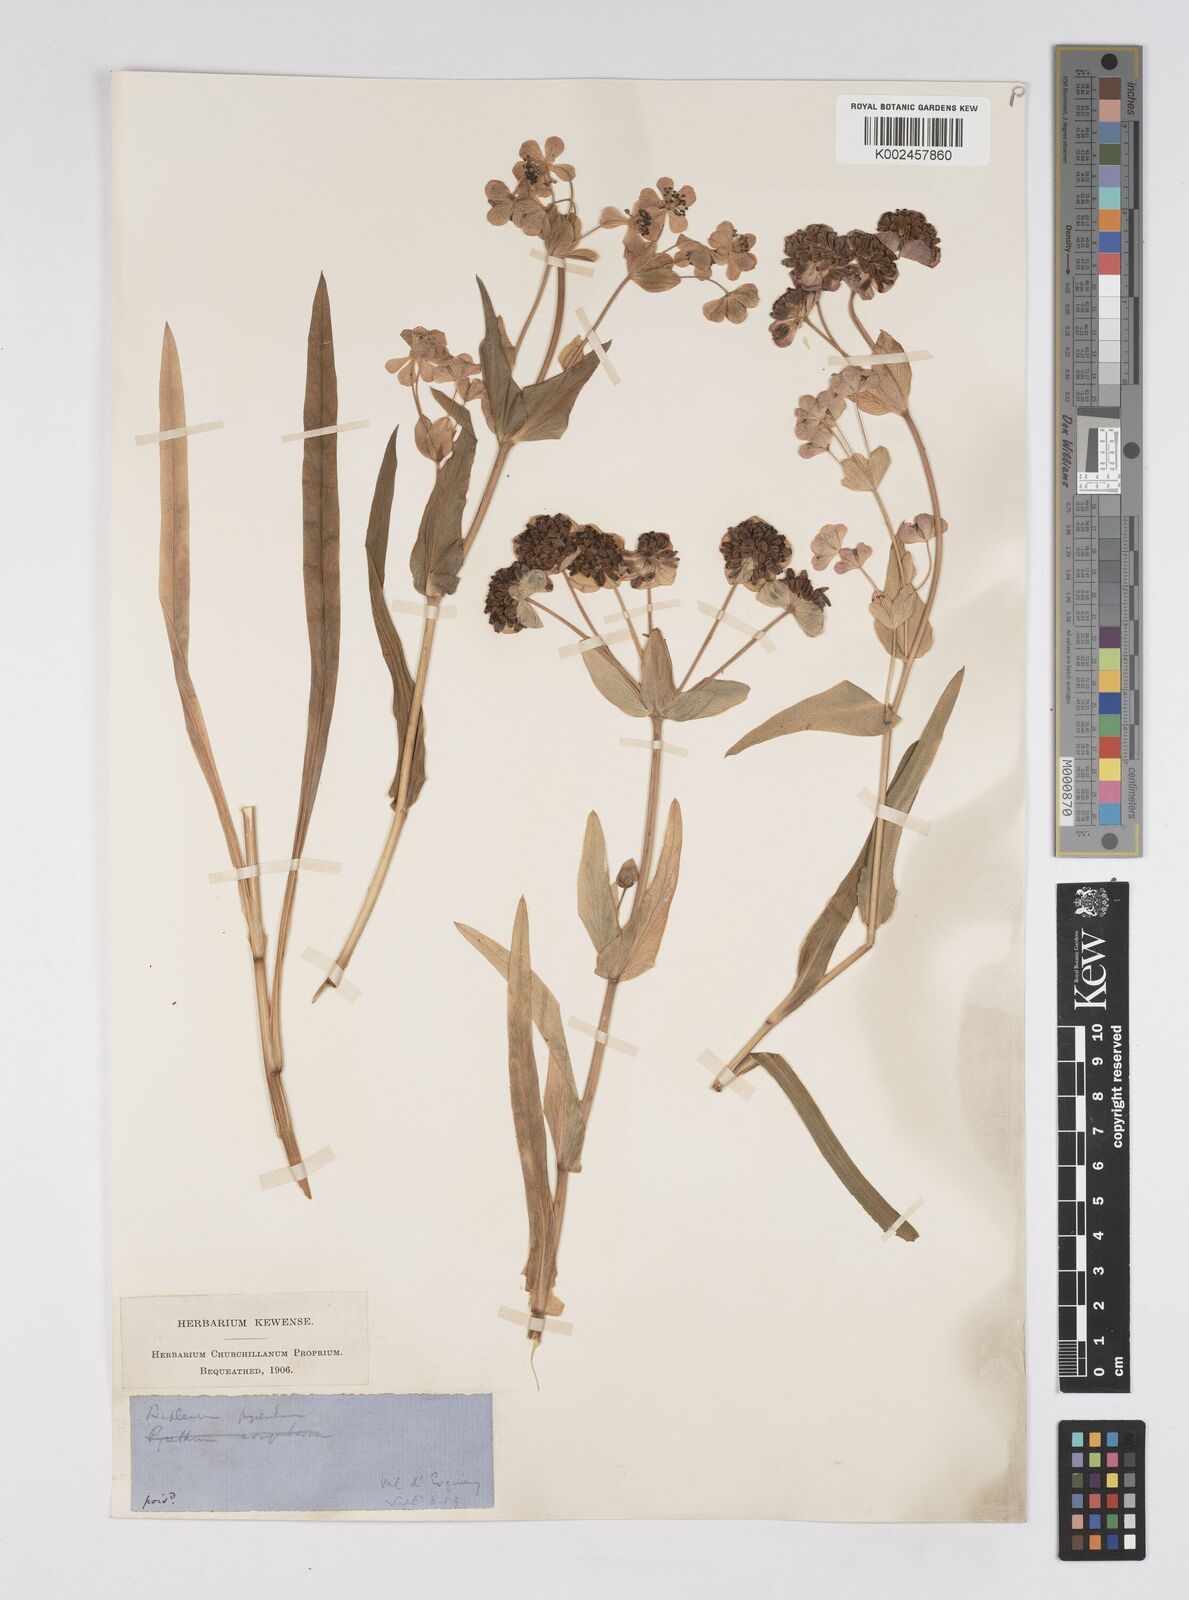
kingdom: Plantae
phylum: Tracheophyta
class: Magnoliopsida
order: Apiales
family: Apiaceae
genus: Bupleurum
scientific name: Bupleurum angulosum
